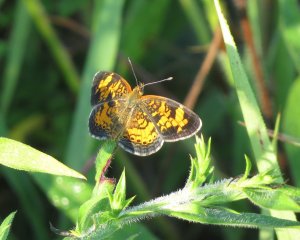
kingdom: Animalia
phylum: Arthropoda
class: Insecta
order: Lepidoptera
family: Nymphalidae
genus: Phyciodes
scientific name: Phyciodes tharos
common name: Pearl Crescent
